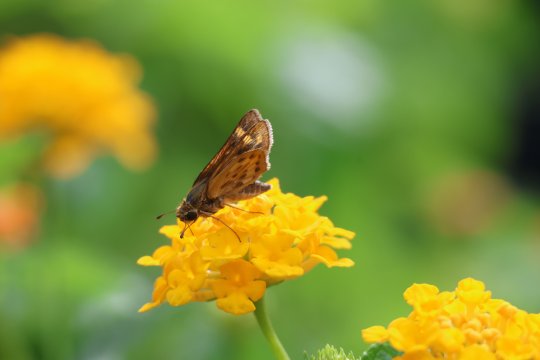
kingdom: Animalia
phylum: Arthropoda
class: Insecta
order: Lepidoptera
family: Hesperiidae
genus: Hylephila
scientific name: Hylephila phyleus
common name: Fiery Skipper
